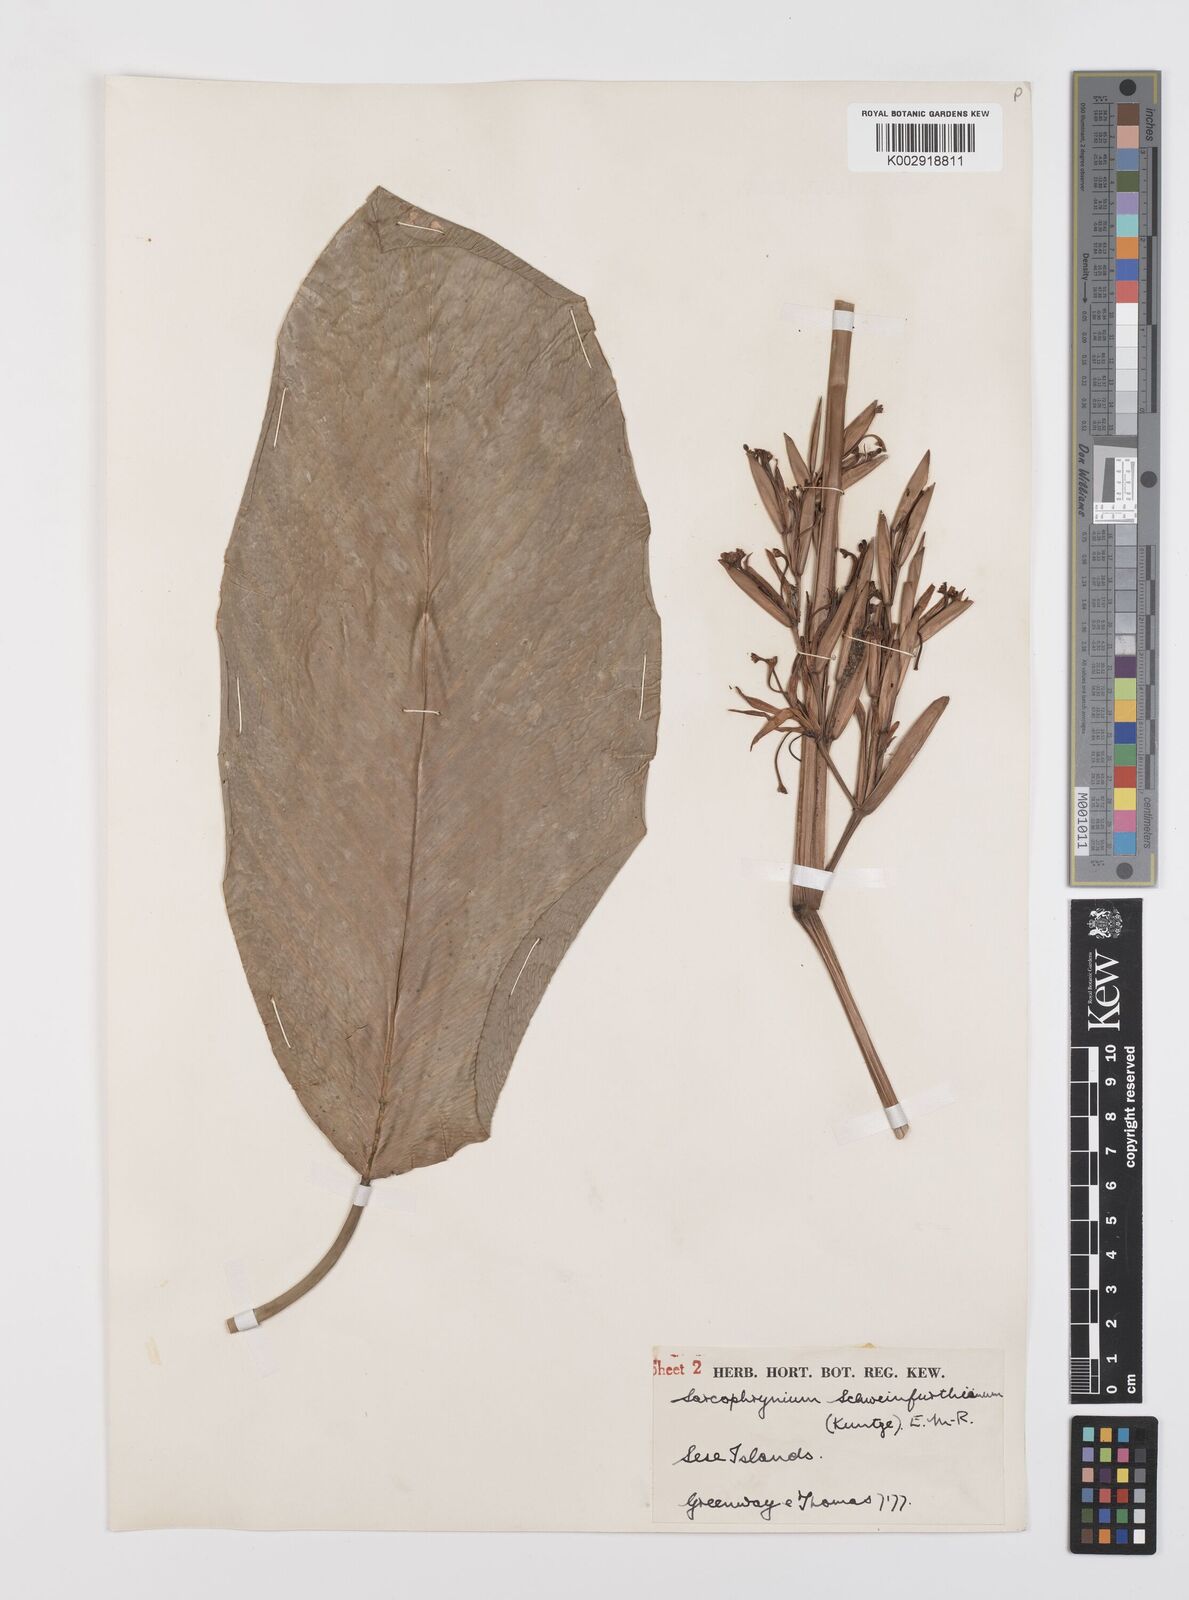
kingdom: Plantae
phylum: Tracheophyta
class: Liliopsida
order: Zingiberales
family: Marantaceae
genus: Sarcophrynium
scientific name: Sarcophrynium schweinfurthianum
